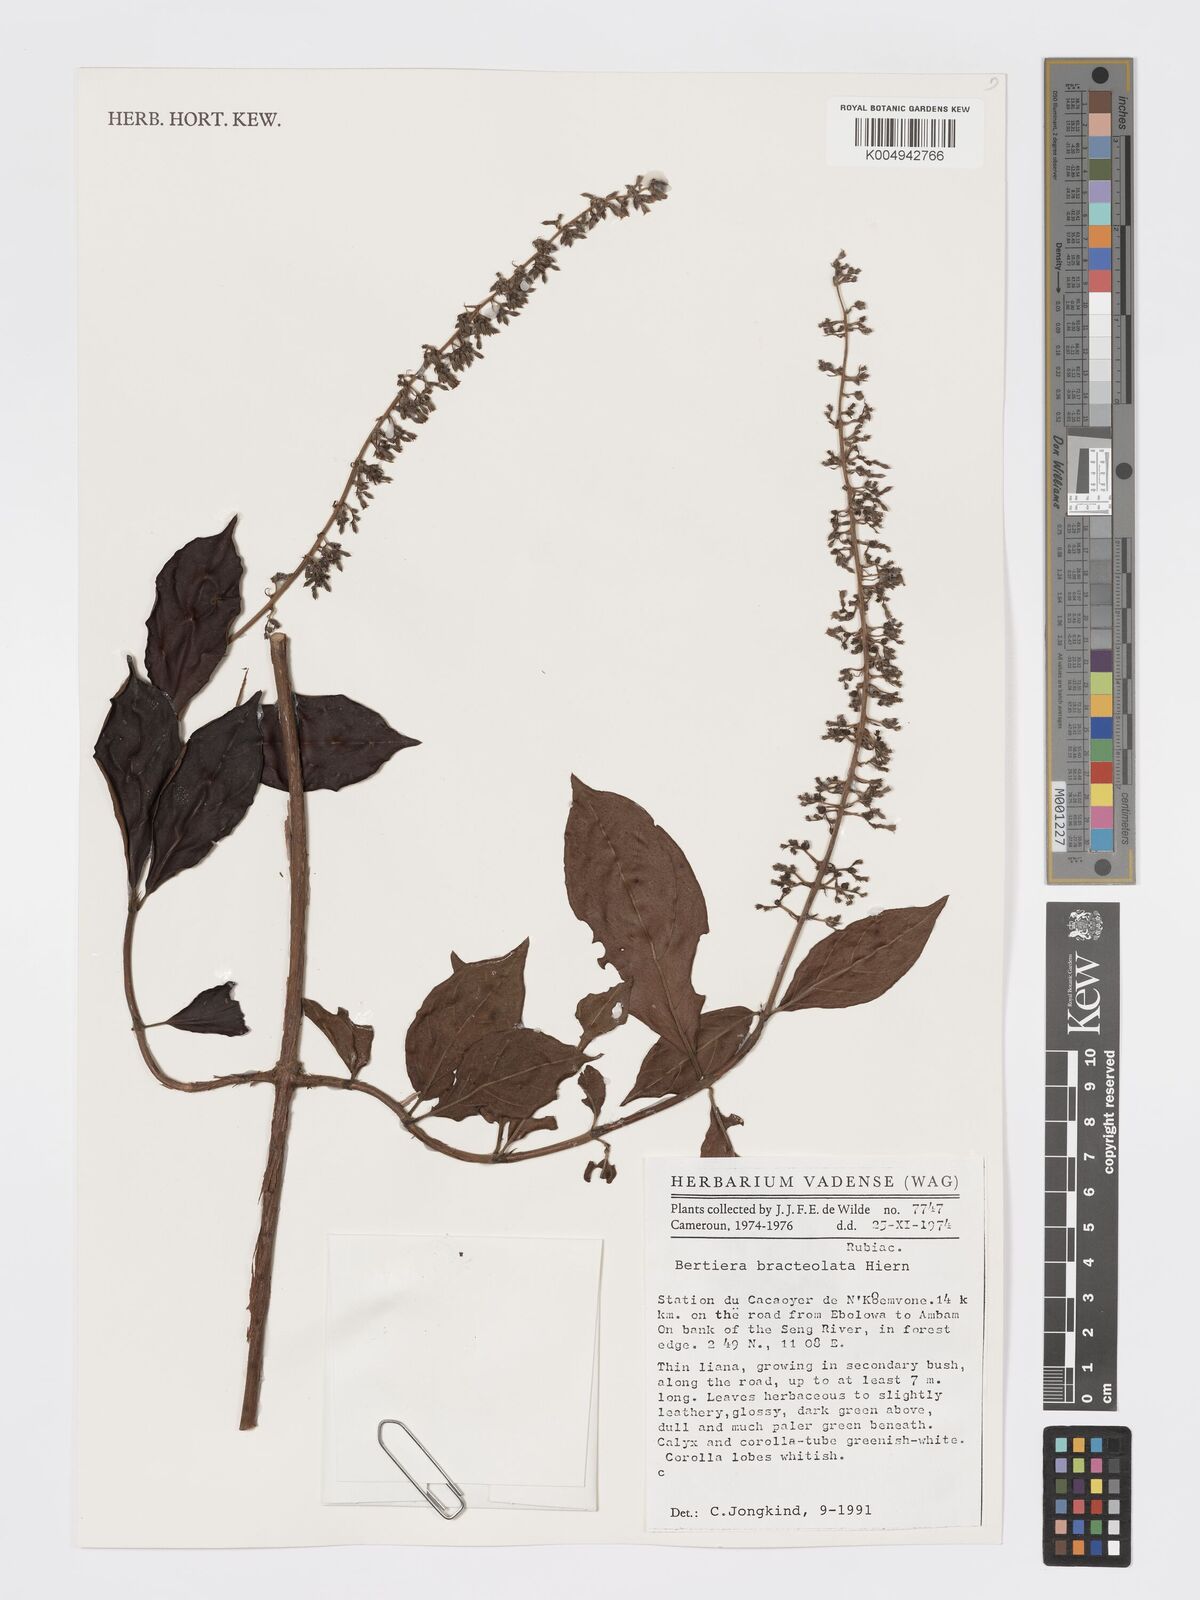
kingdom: Plantae
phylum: Tracheophyta
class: Magnoliopsida
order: Gentianales
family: Rubiaceae
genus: Bertiera
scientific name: Bertiera bracteolata
